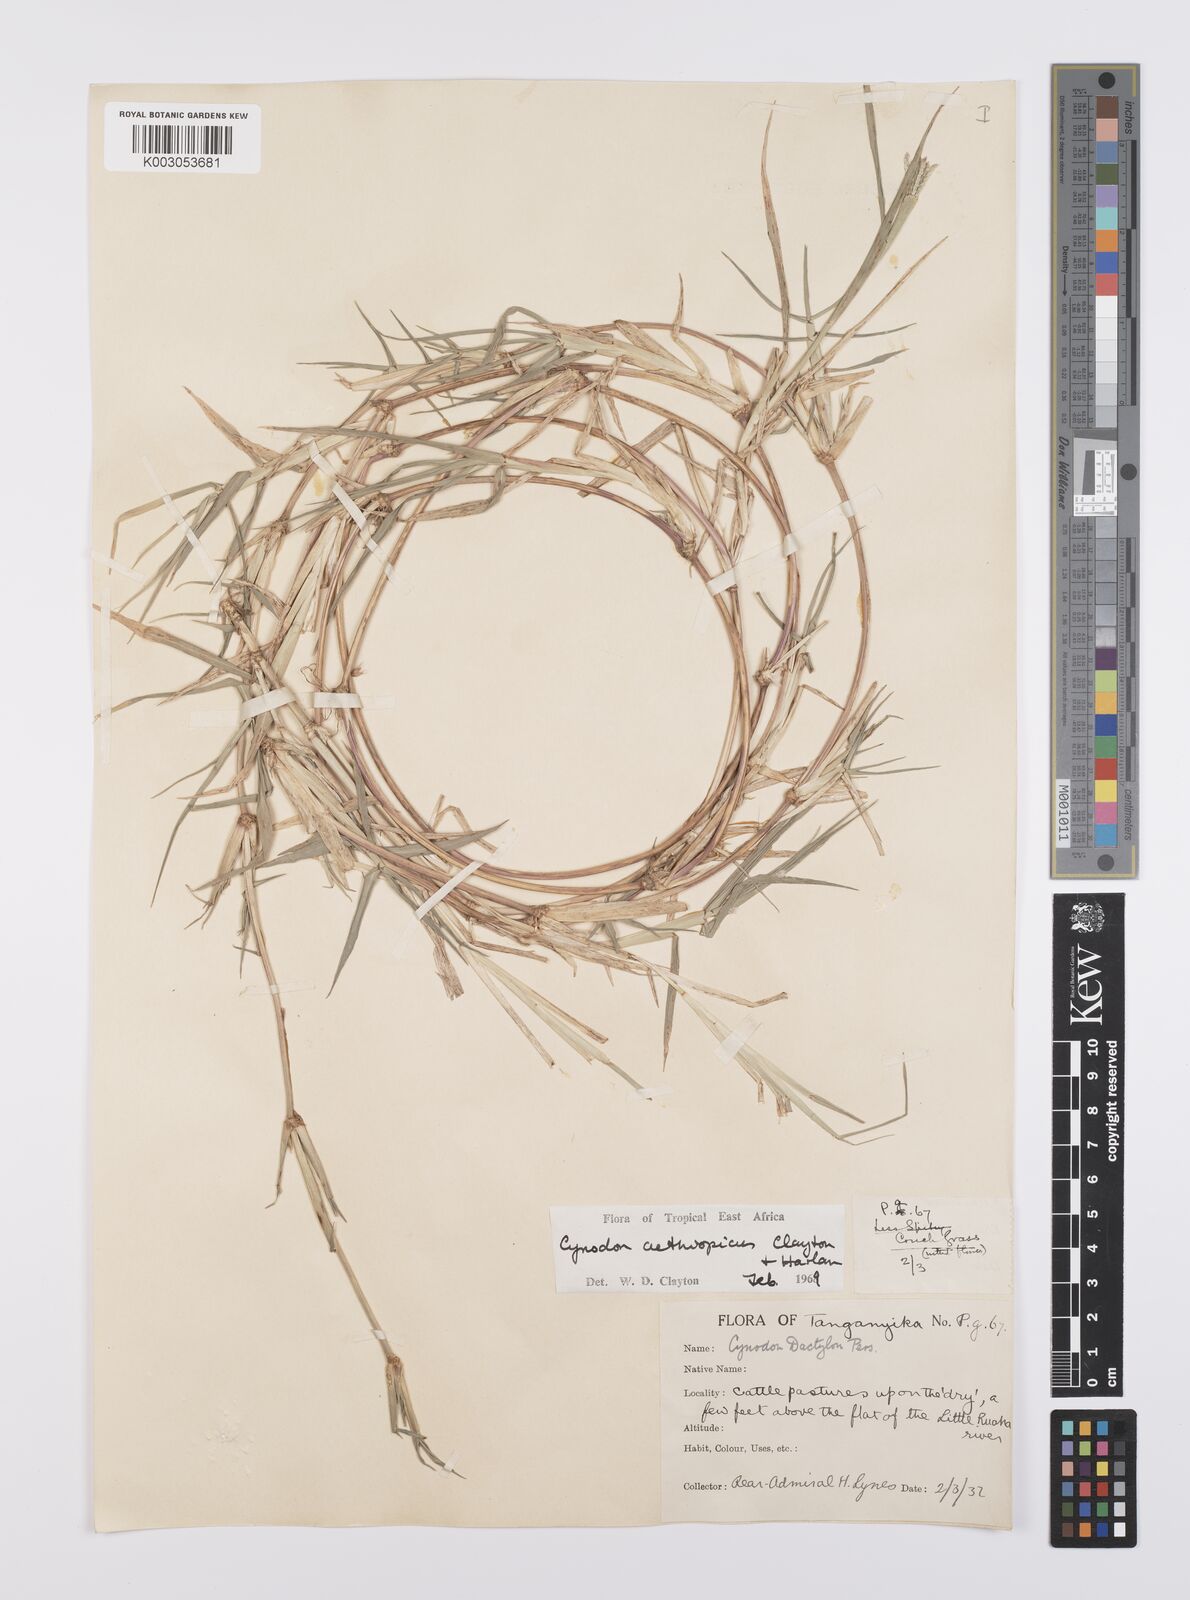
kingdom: Plantae
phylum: Tracheophyta
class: Liliopsida
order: Poales
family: Poaceae
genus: Cynodon
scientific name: Cynodon aethiopicus
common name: Ethiopian dogstooth grass
